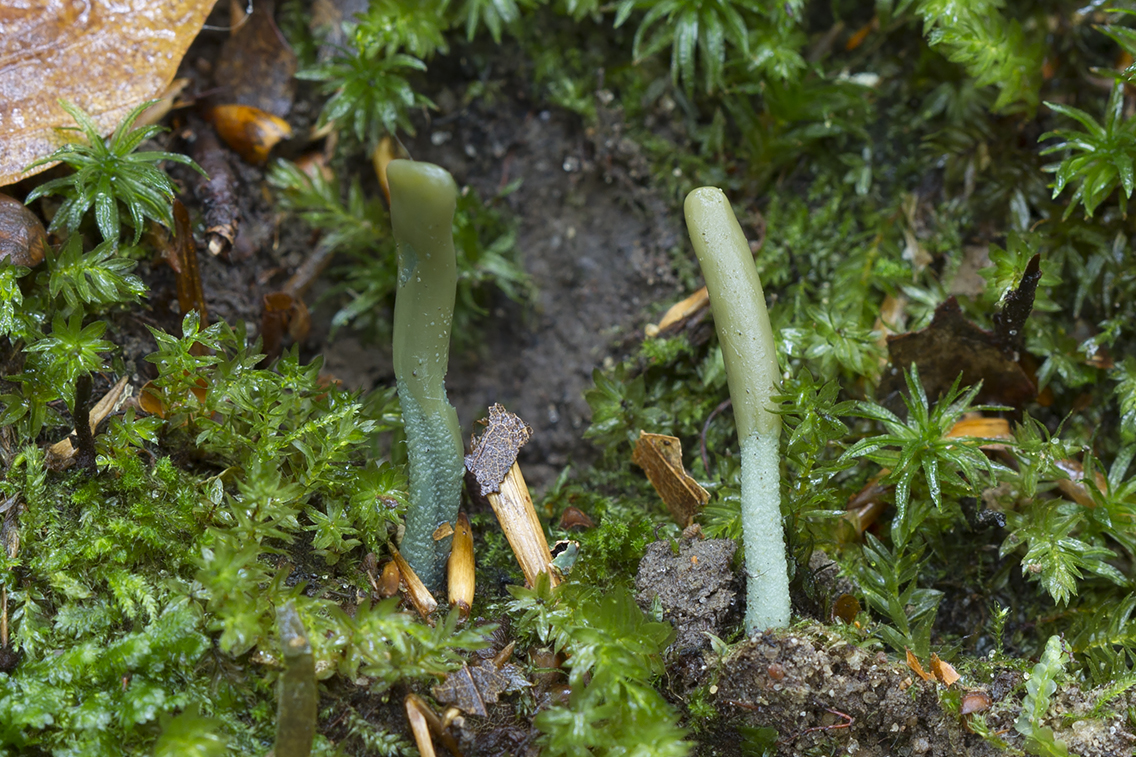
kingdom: Fungi
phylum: Ascomycota
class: Leotiomycetes
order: Leotiales
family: Leotiaceae
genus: Microglossum
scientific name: Microglossum griseoviride
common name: grågrøn farvetunge
